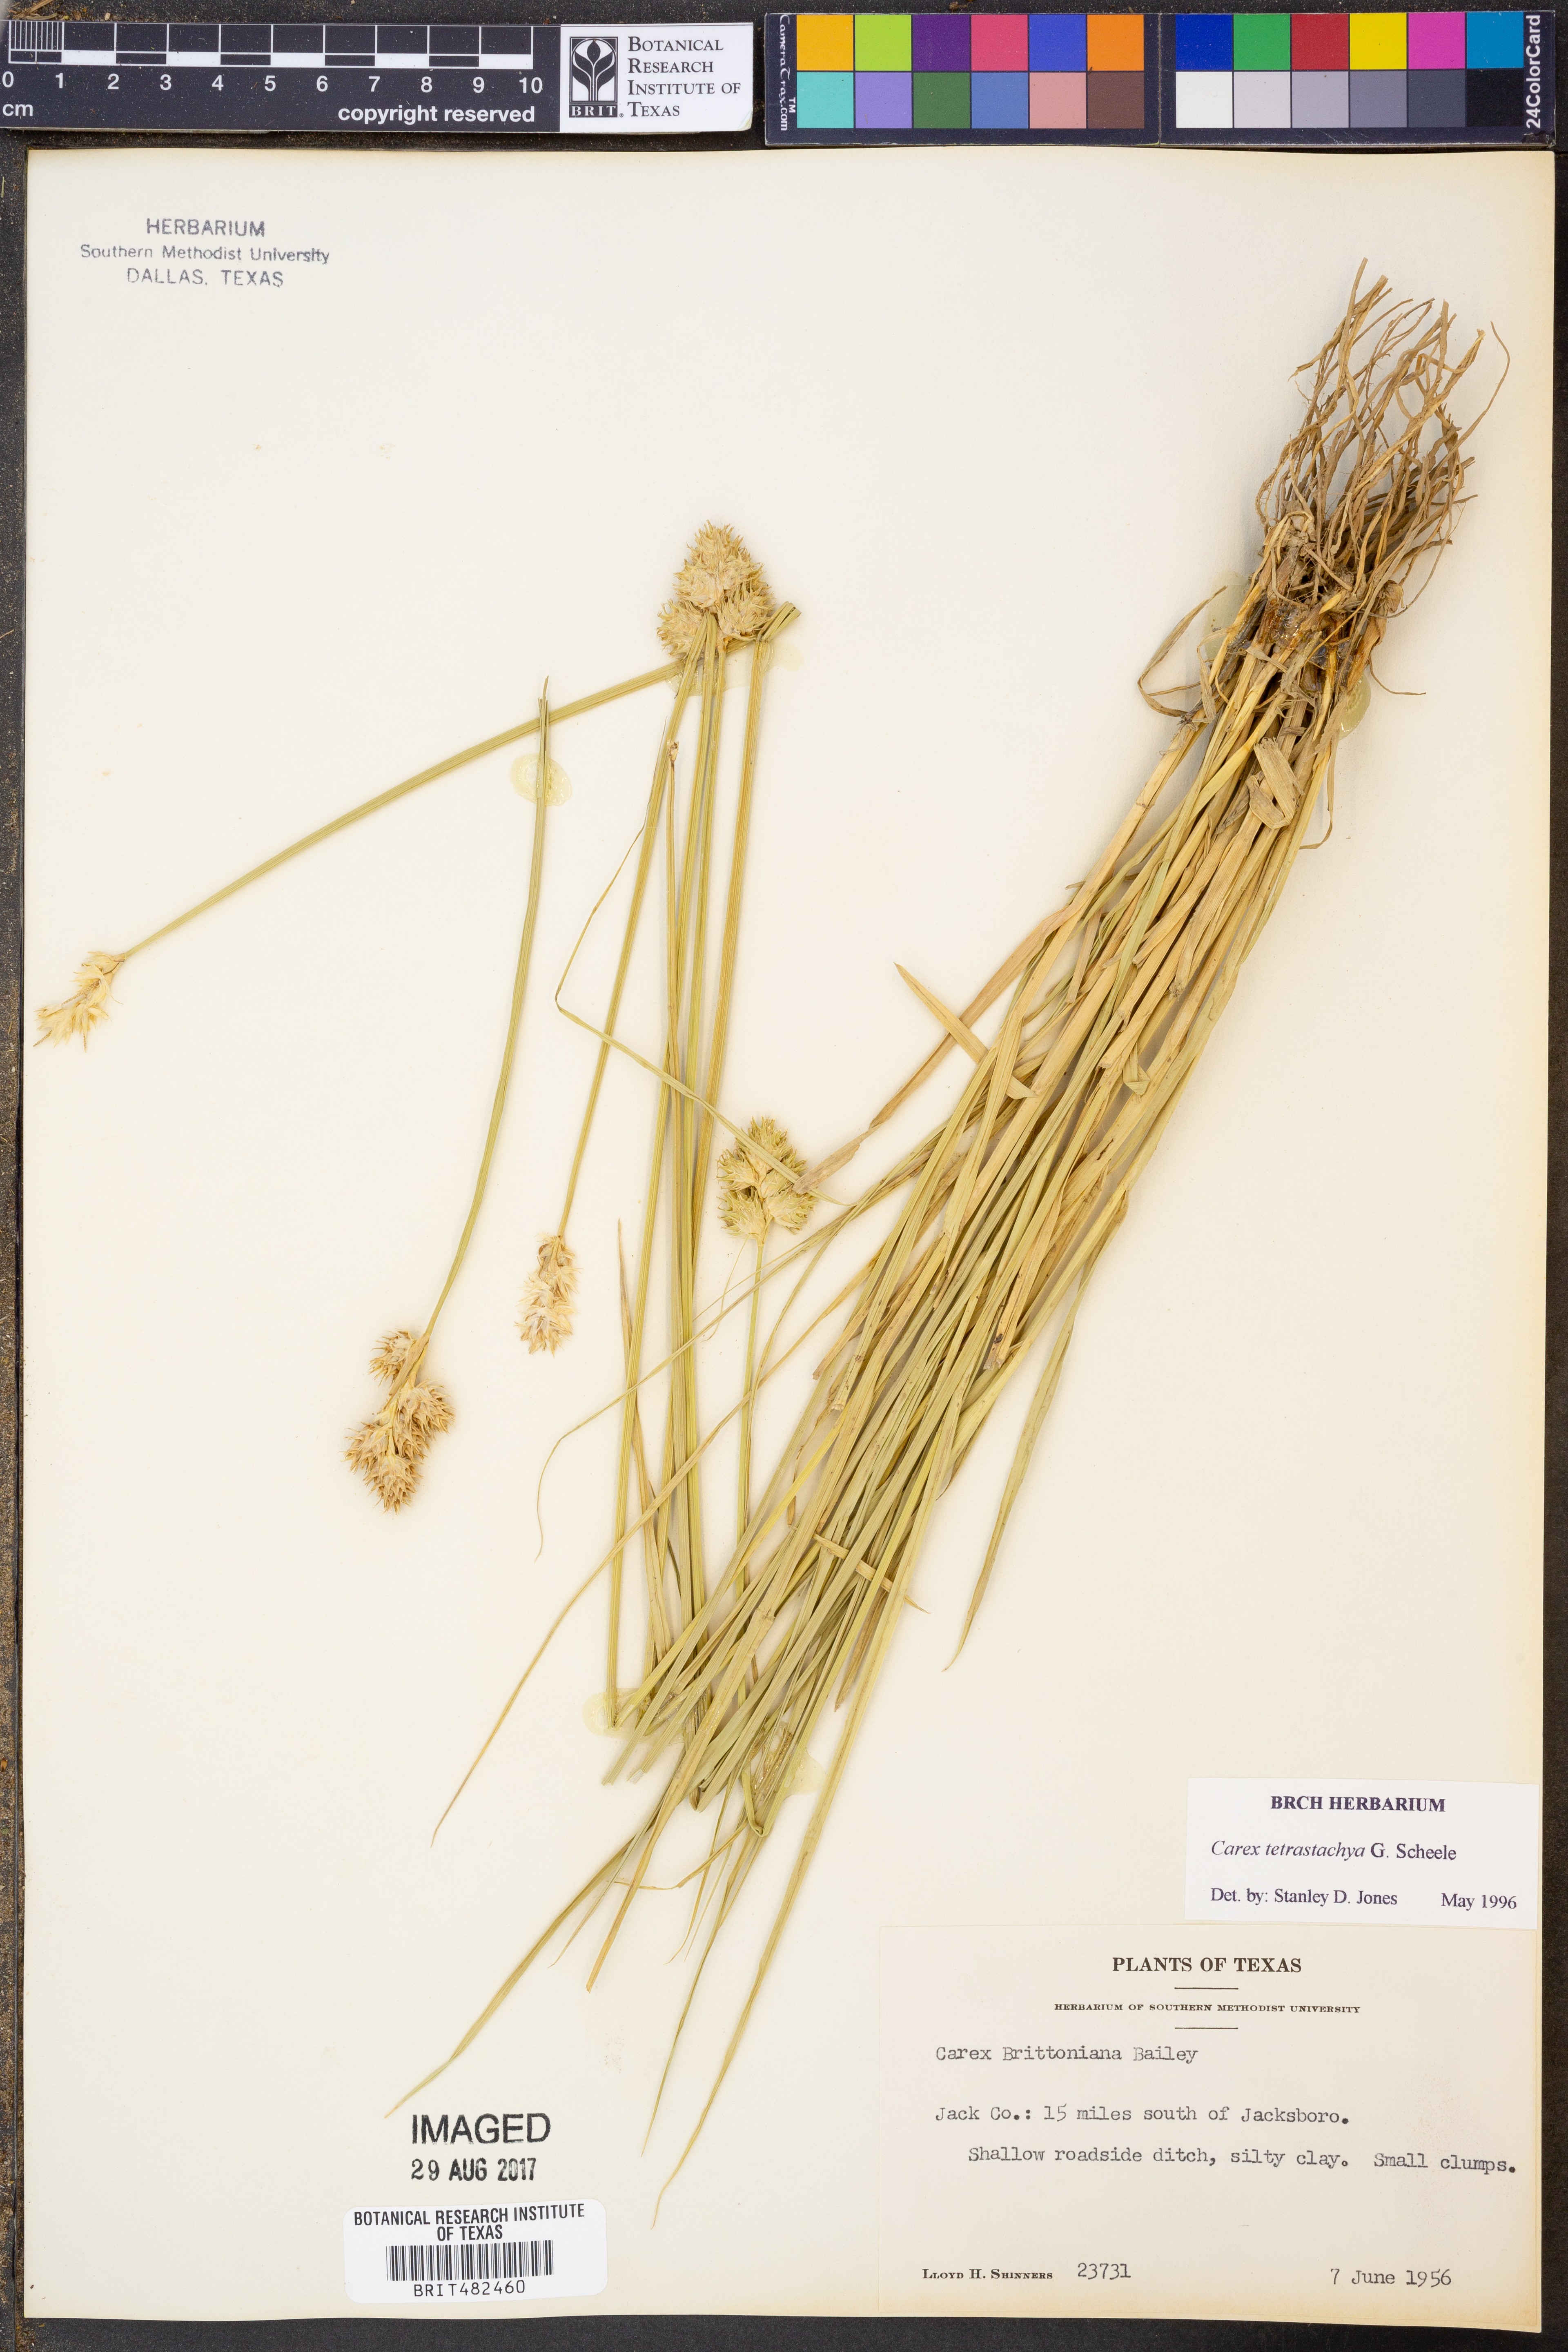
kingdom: Plantae
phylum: Tracheophyta
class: Liliopsida
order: Poales
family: Cyperaceae
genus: Carex
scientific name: Carex tetrastachya
